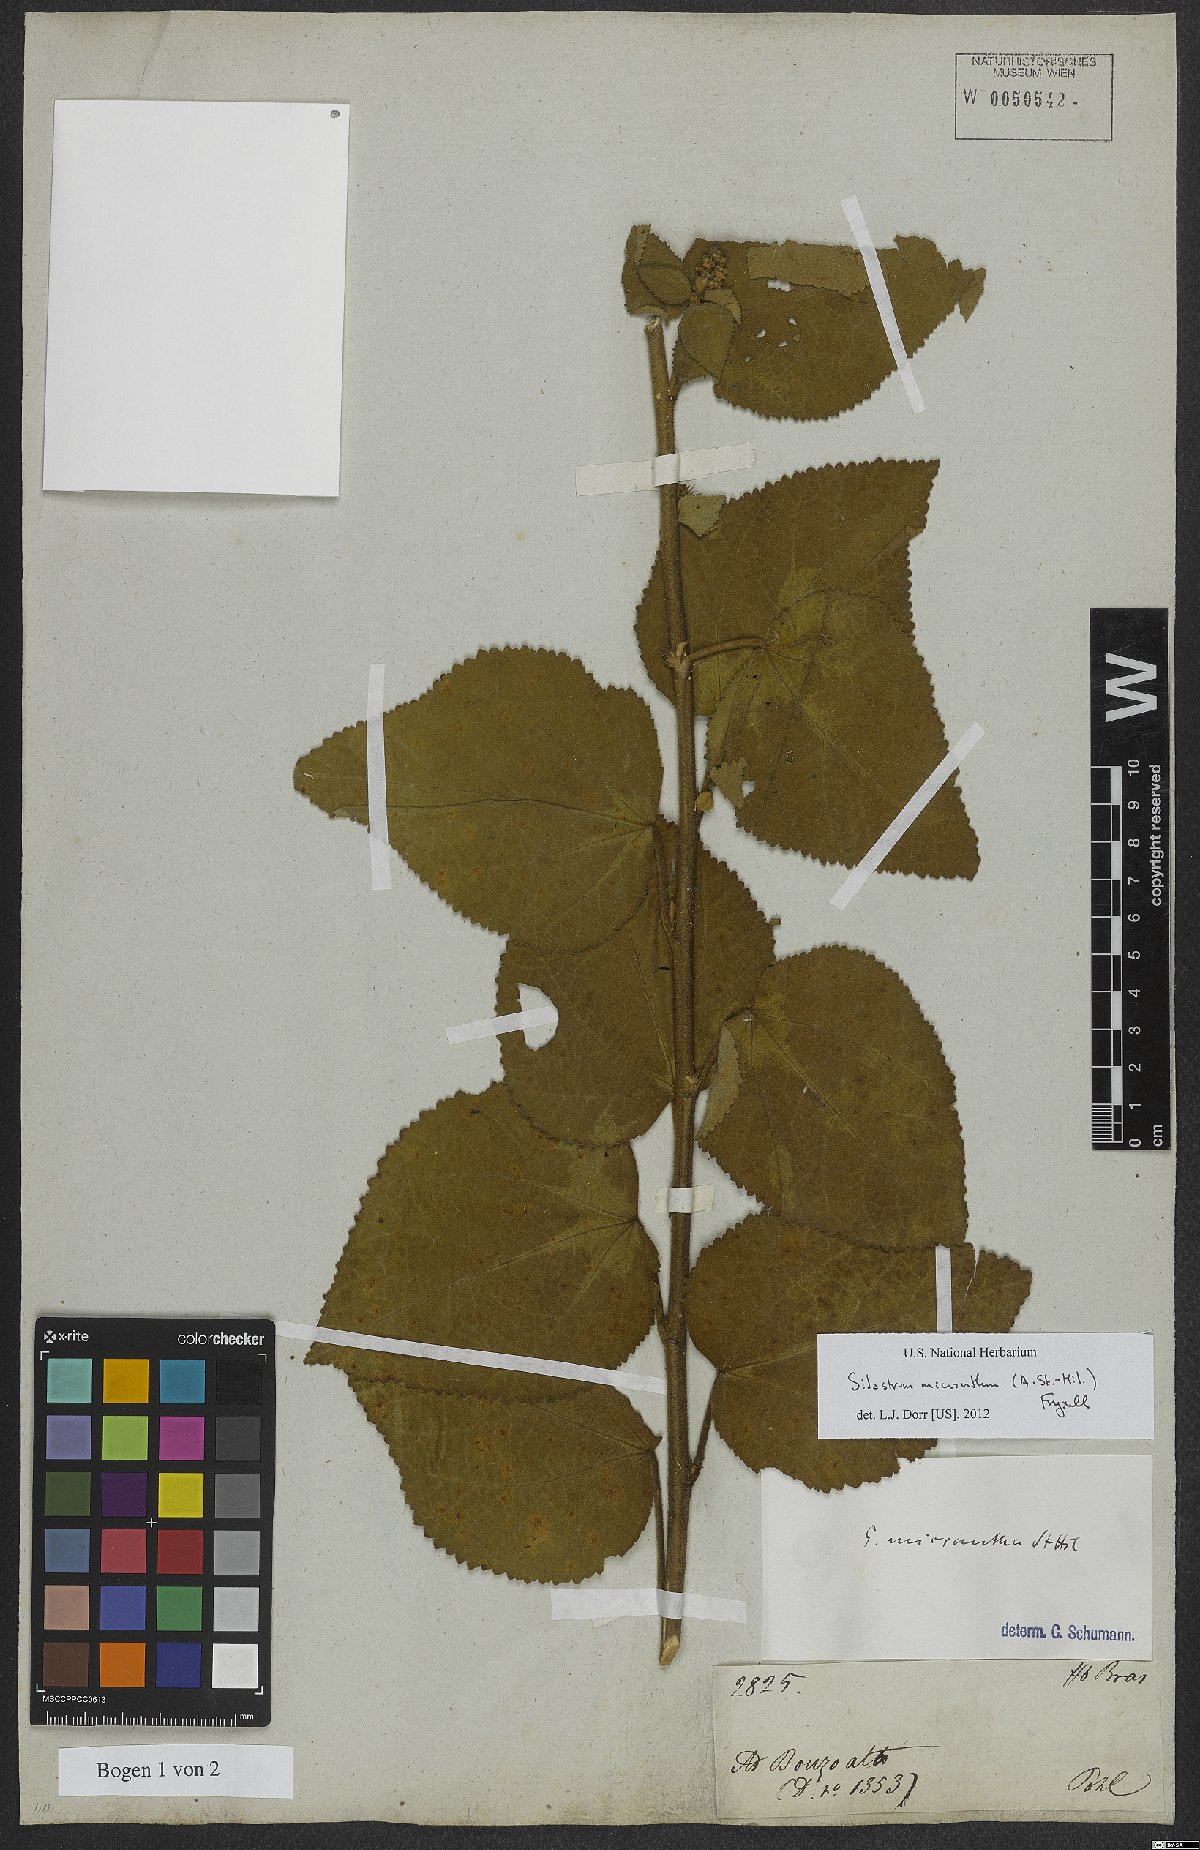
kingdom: Plantae
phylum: Tracheophyta
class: Magnoliopsida
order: Malvales
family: Malvaceae
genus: Sidastrum
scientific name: Sidastrum micranthum
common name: Dainty sandmallow
